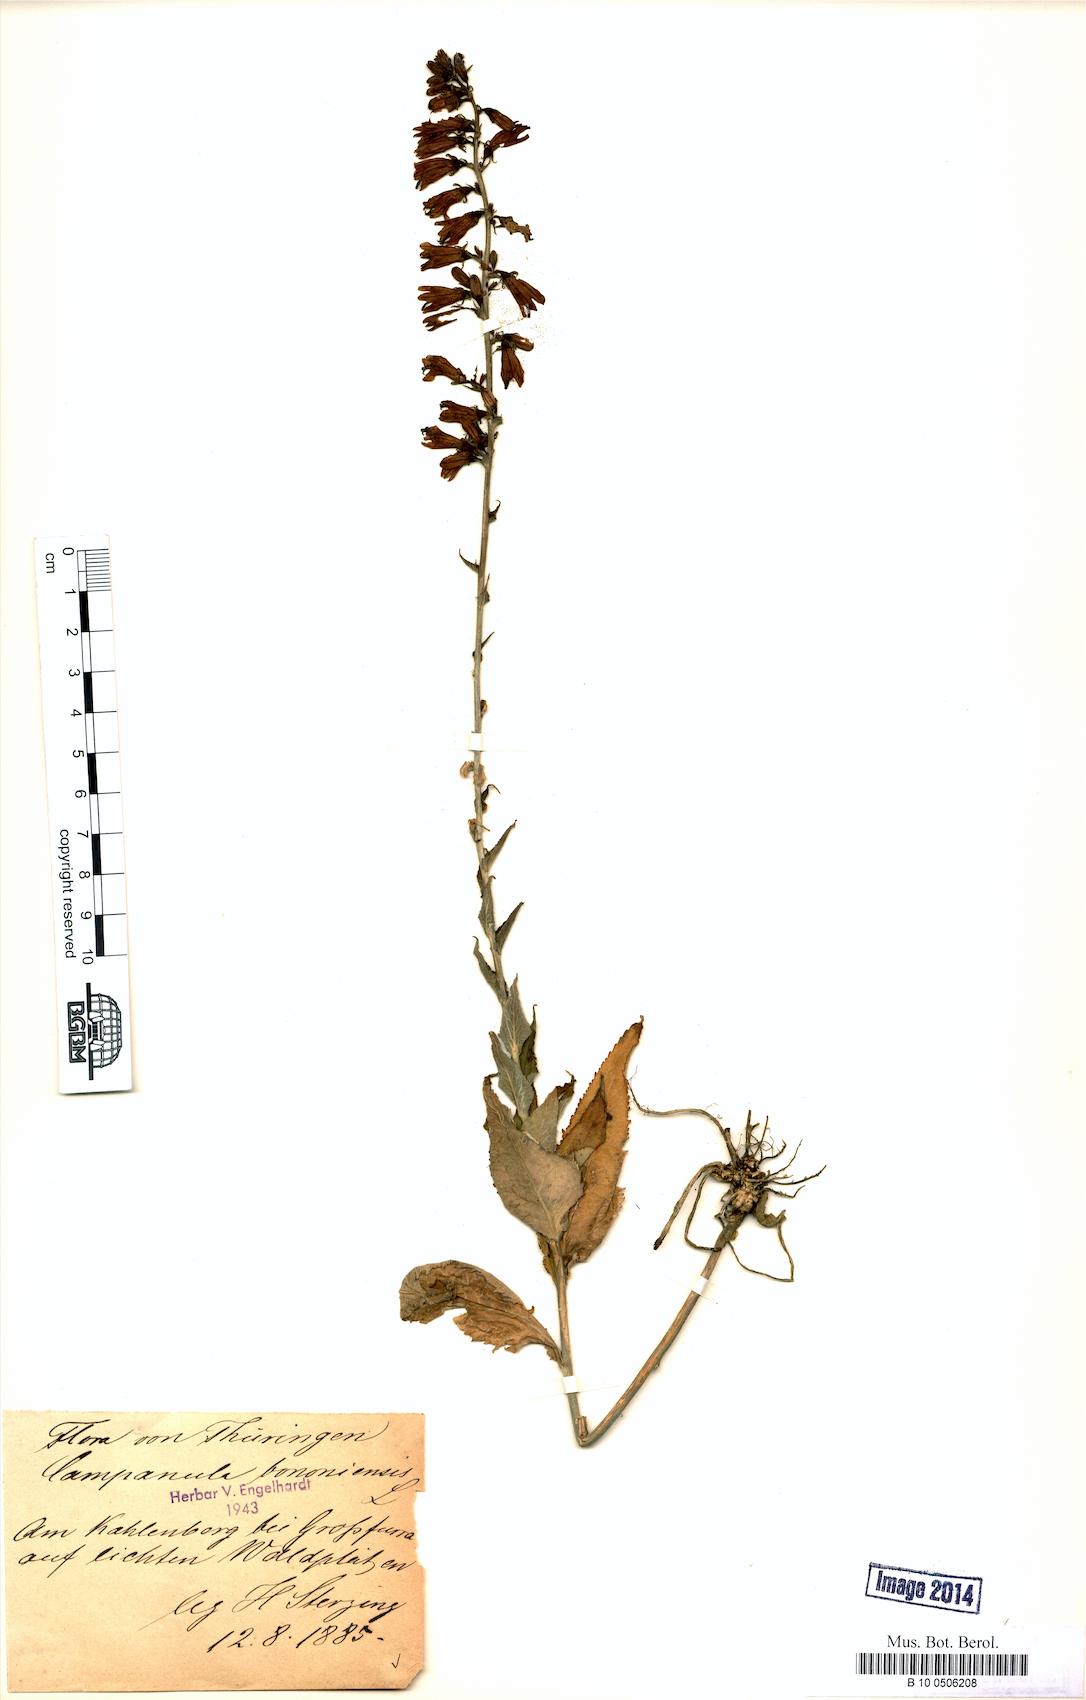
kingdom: Plantae
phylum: Tracheophyta
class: Magnoliopsida
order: Asterales
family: Campanulaceae
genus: Campanula
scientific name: Campanula bononiensis
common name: Pale bellflower
